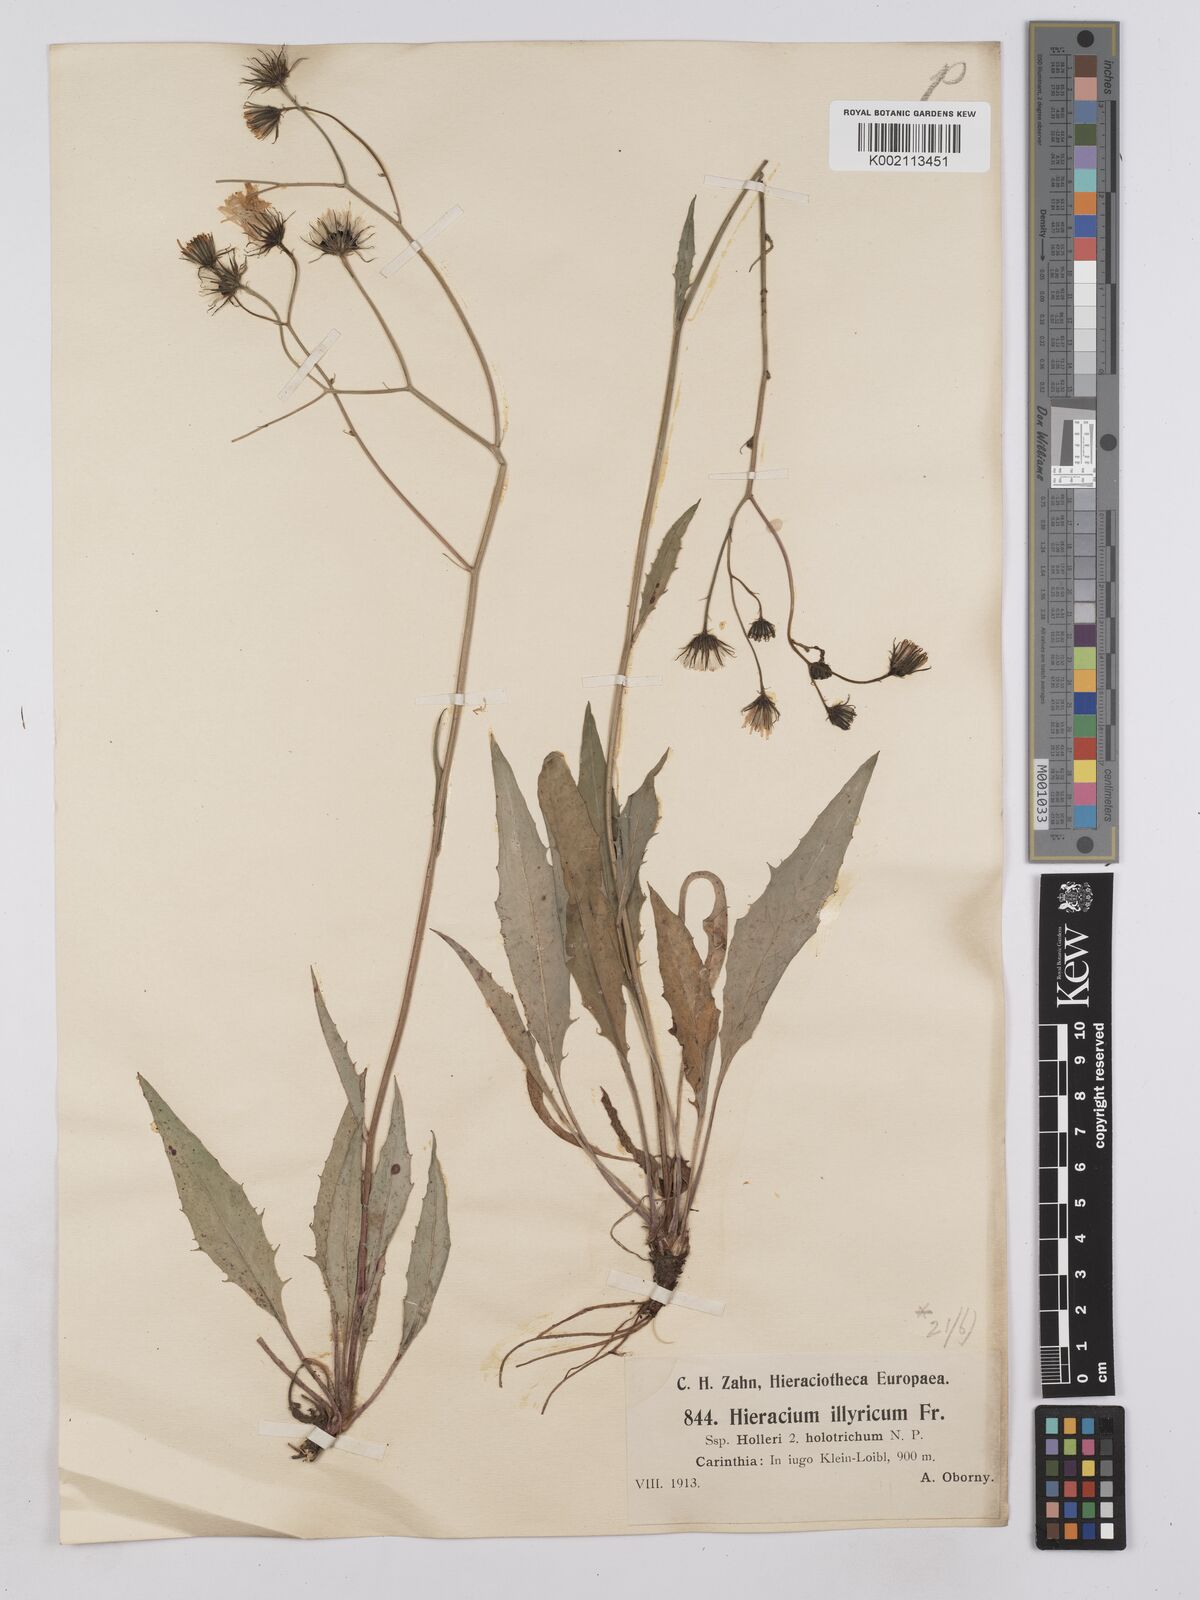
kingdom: Plantae
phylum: Tracheophyta
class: Magnoliopsida
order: Asterales
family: Asteraceae
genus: Hieracium
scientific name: Hieracium calcareum
